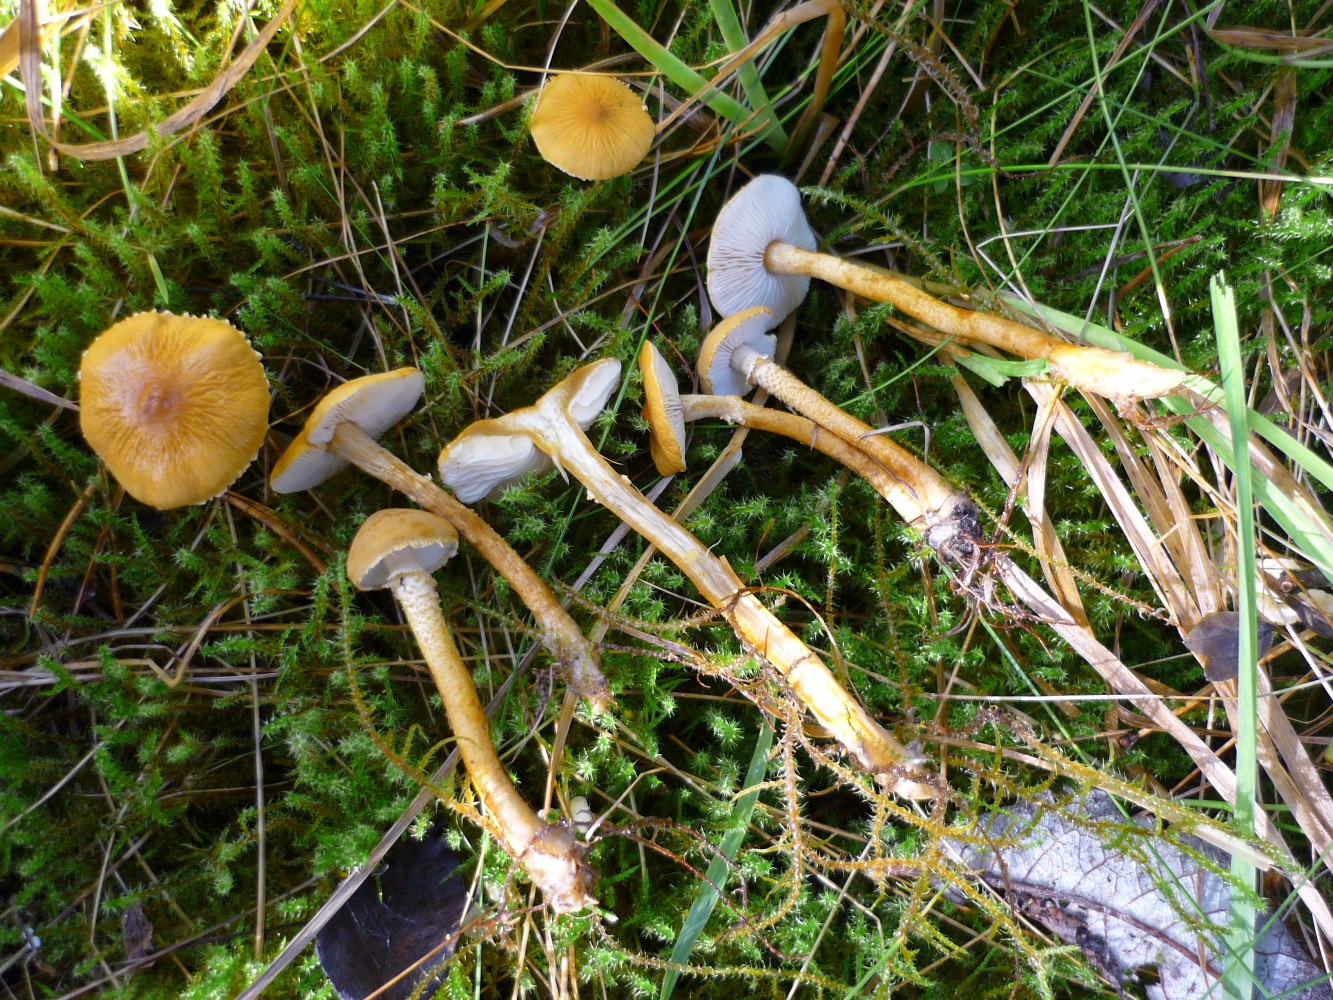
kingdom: Fungi
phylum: Basidiomycota
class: Agaricomycetes
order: Agaricales
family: Tricholomataceae
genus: Cystoderma
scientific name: Cystoderma amianthinum
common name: okkergul grynhat
